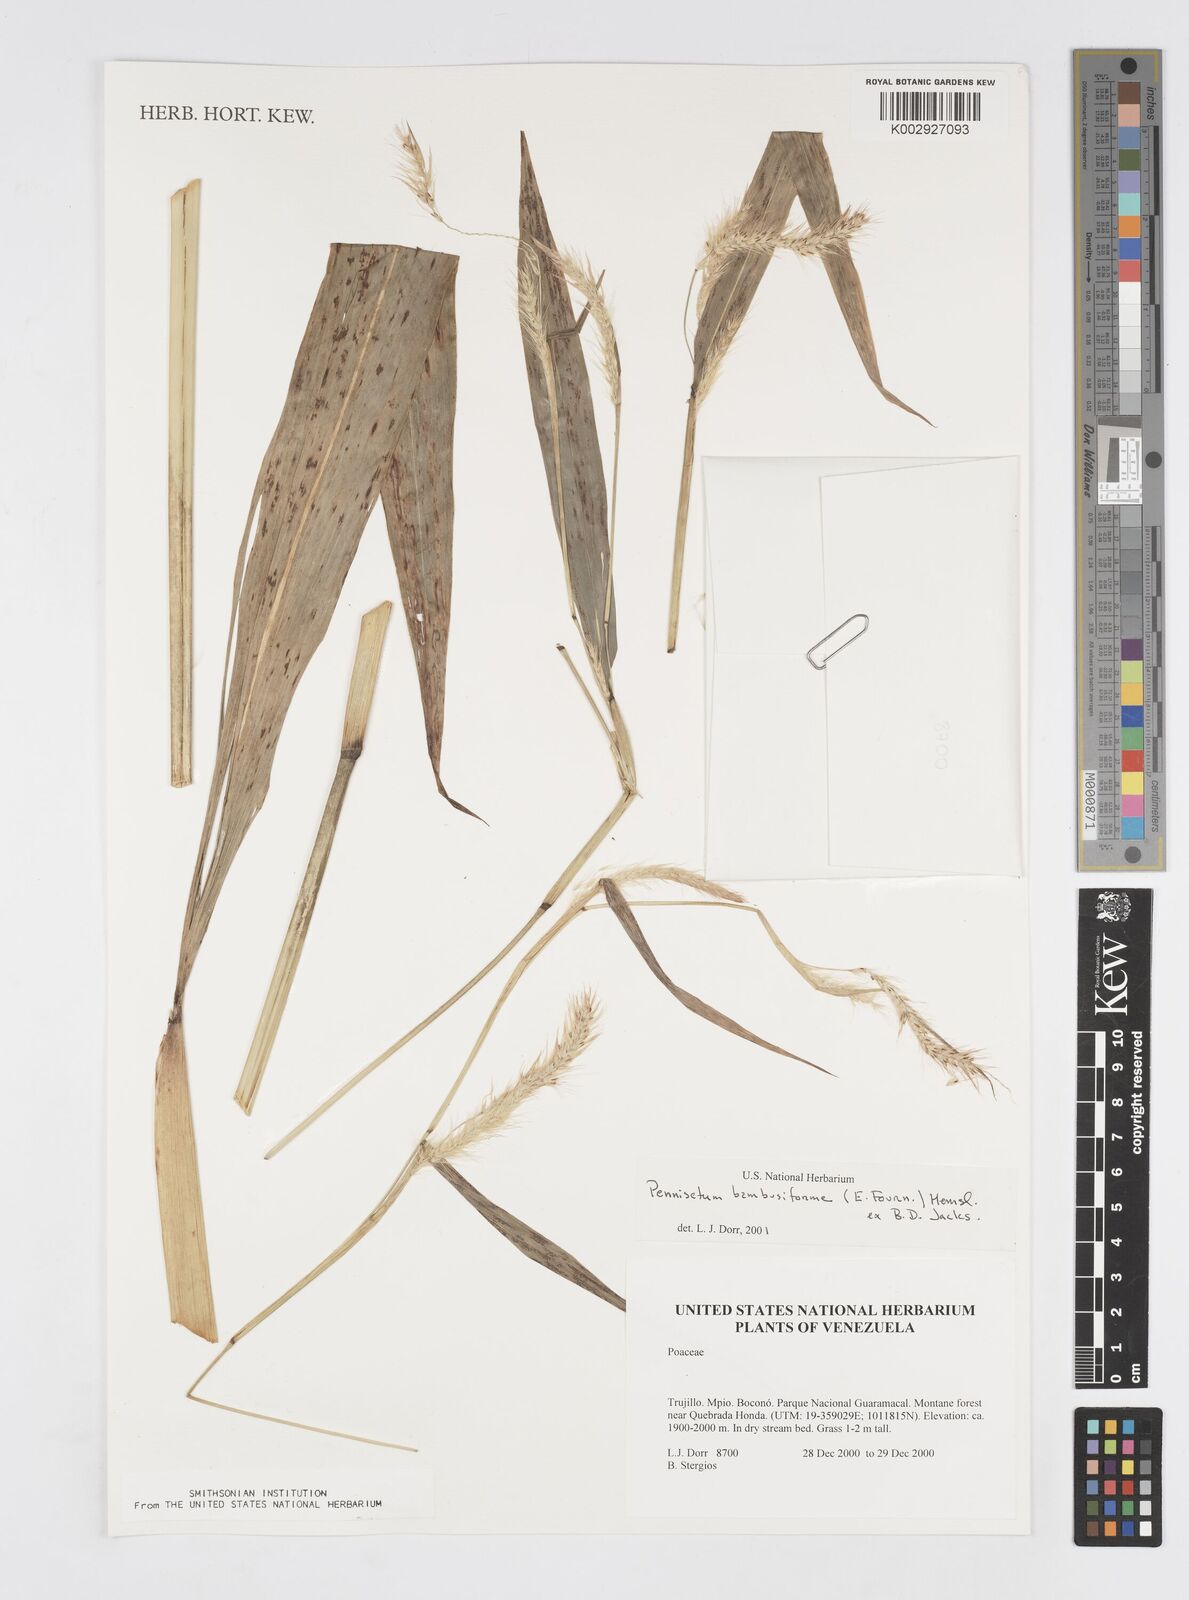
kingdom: Plantae
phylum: Tracheophyta
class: Liliopsida
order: Poales
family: Poaceae
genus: Cenchrus
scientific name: Cenchrus tristachyus
